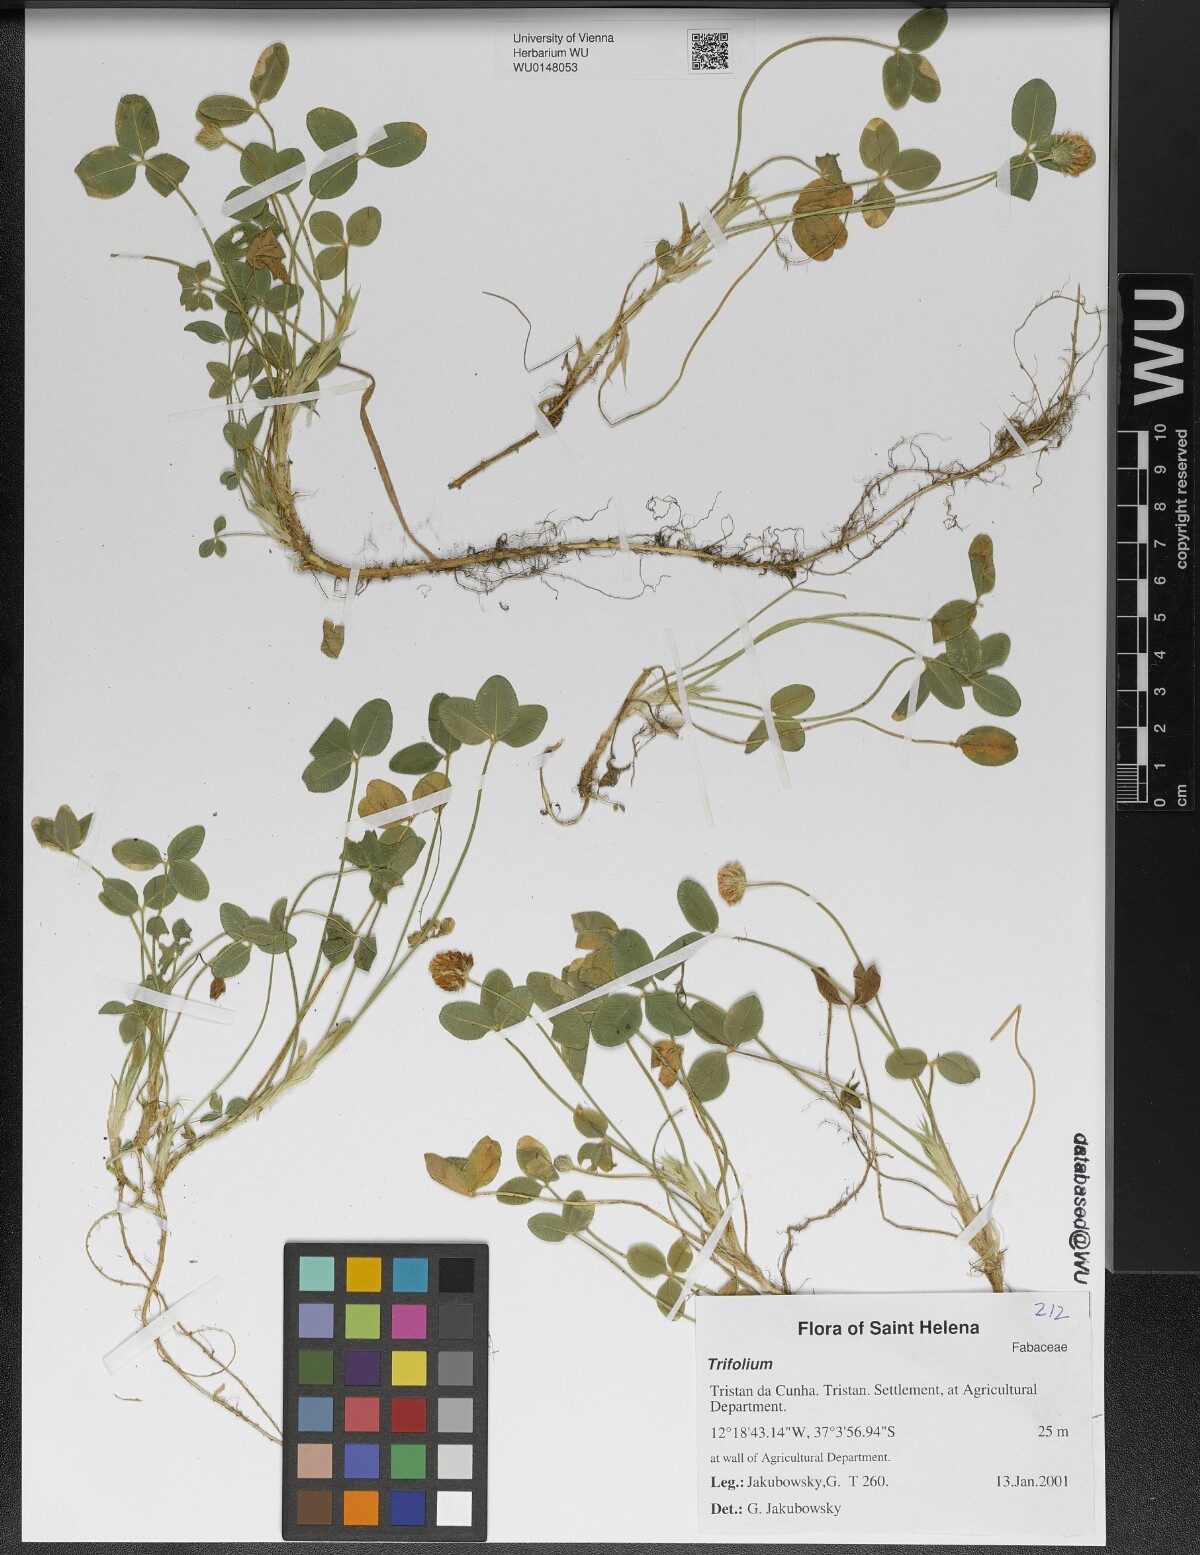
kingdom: Plantae
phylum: Tracheophyta
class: Magnoliopsida
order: Fabales
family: Fabaceae
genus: Trifolium
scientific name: Trifolium
